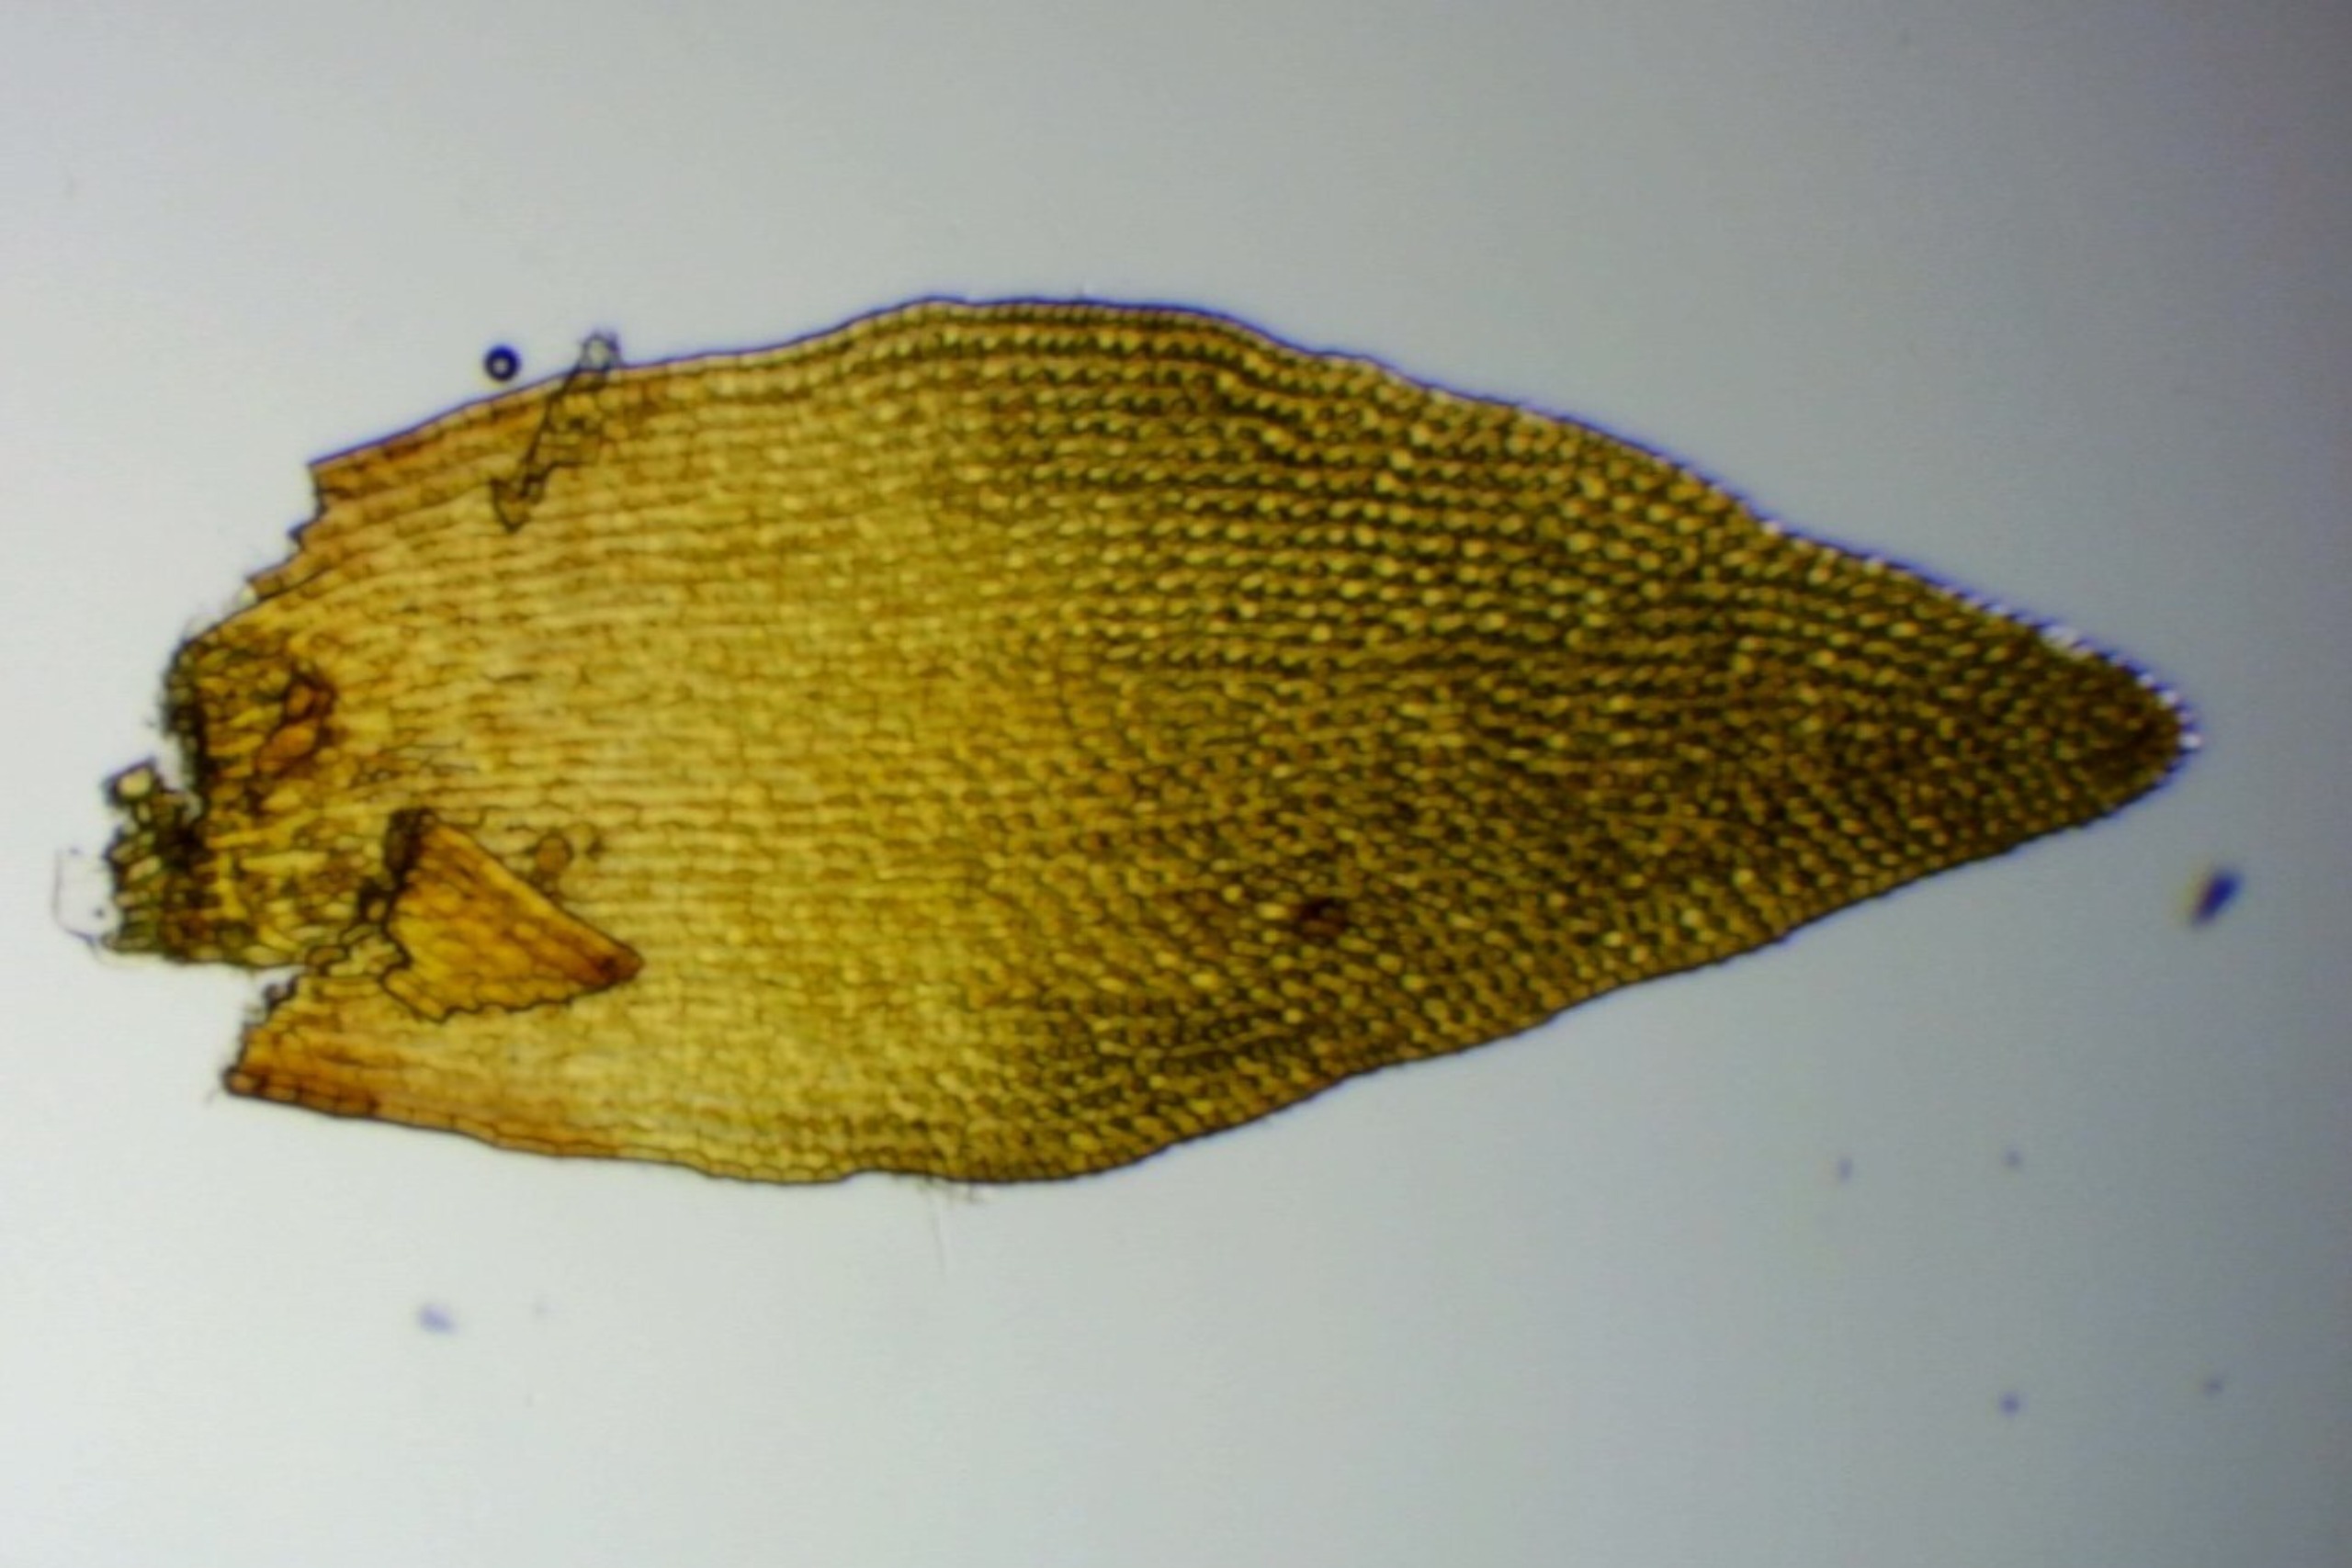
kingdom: Plantae
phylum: Bryophyta
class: Andreaeopsida
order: Andreaeales
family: Andreaeaceae
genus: Andreaea
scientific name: Andreaea rupestris
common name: Lille sortmos
